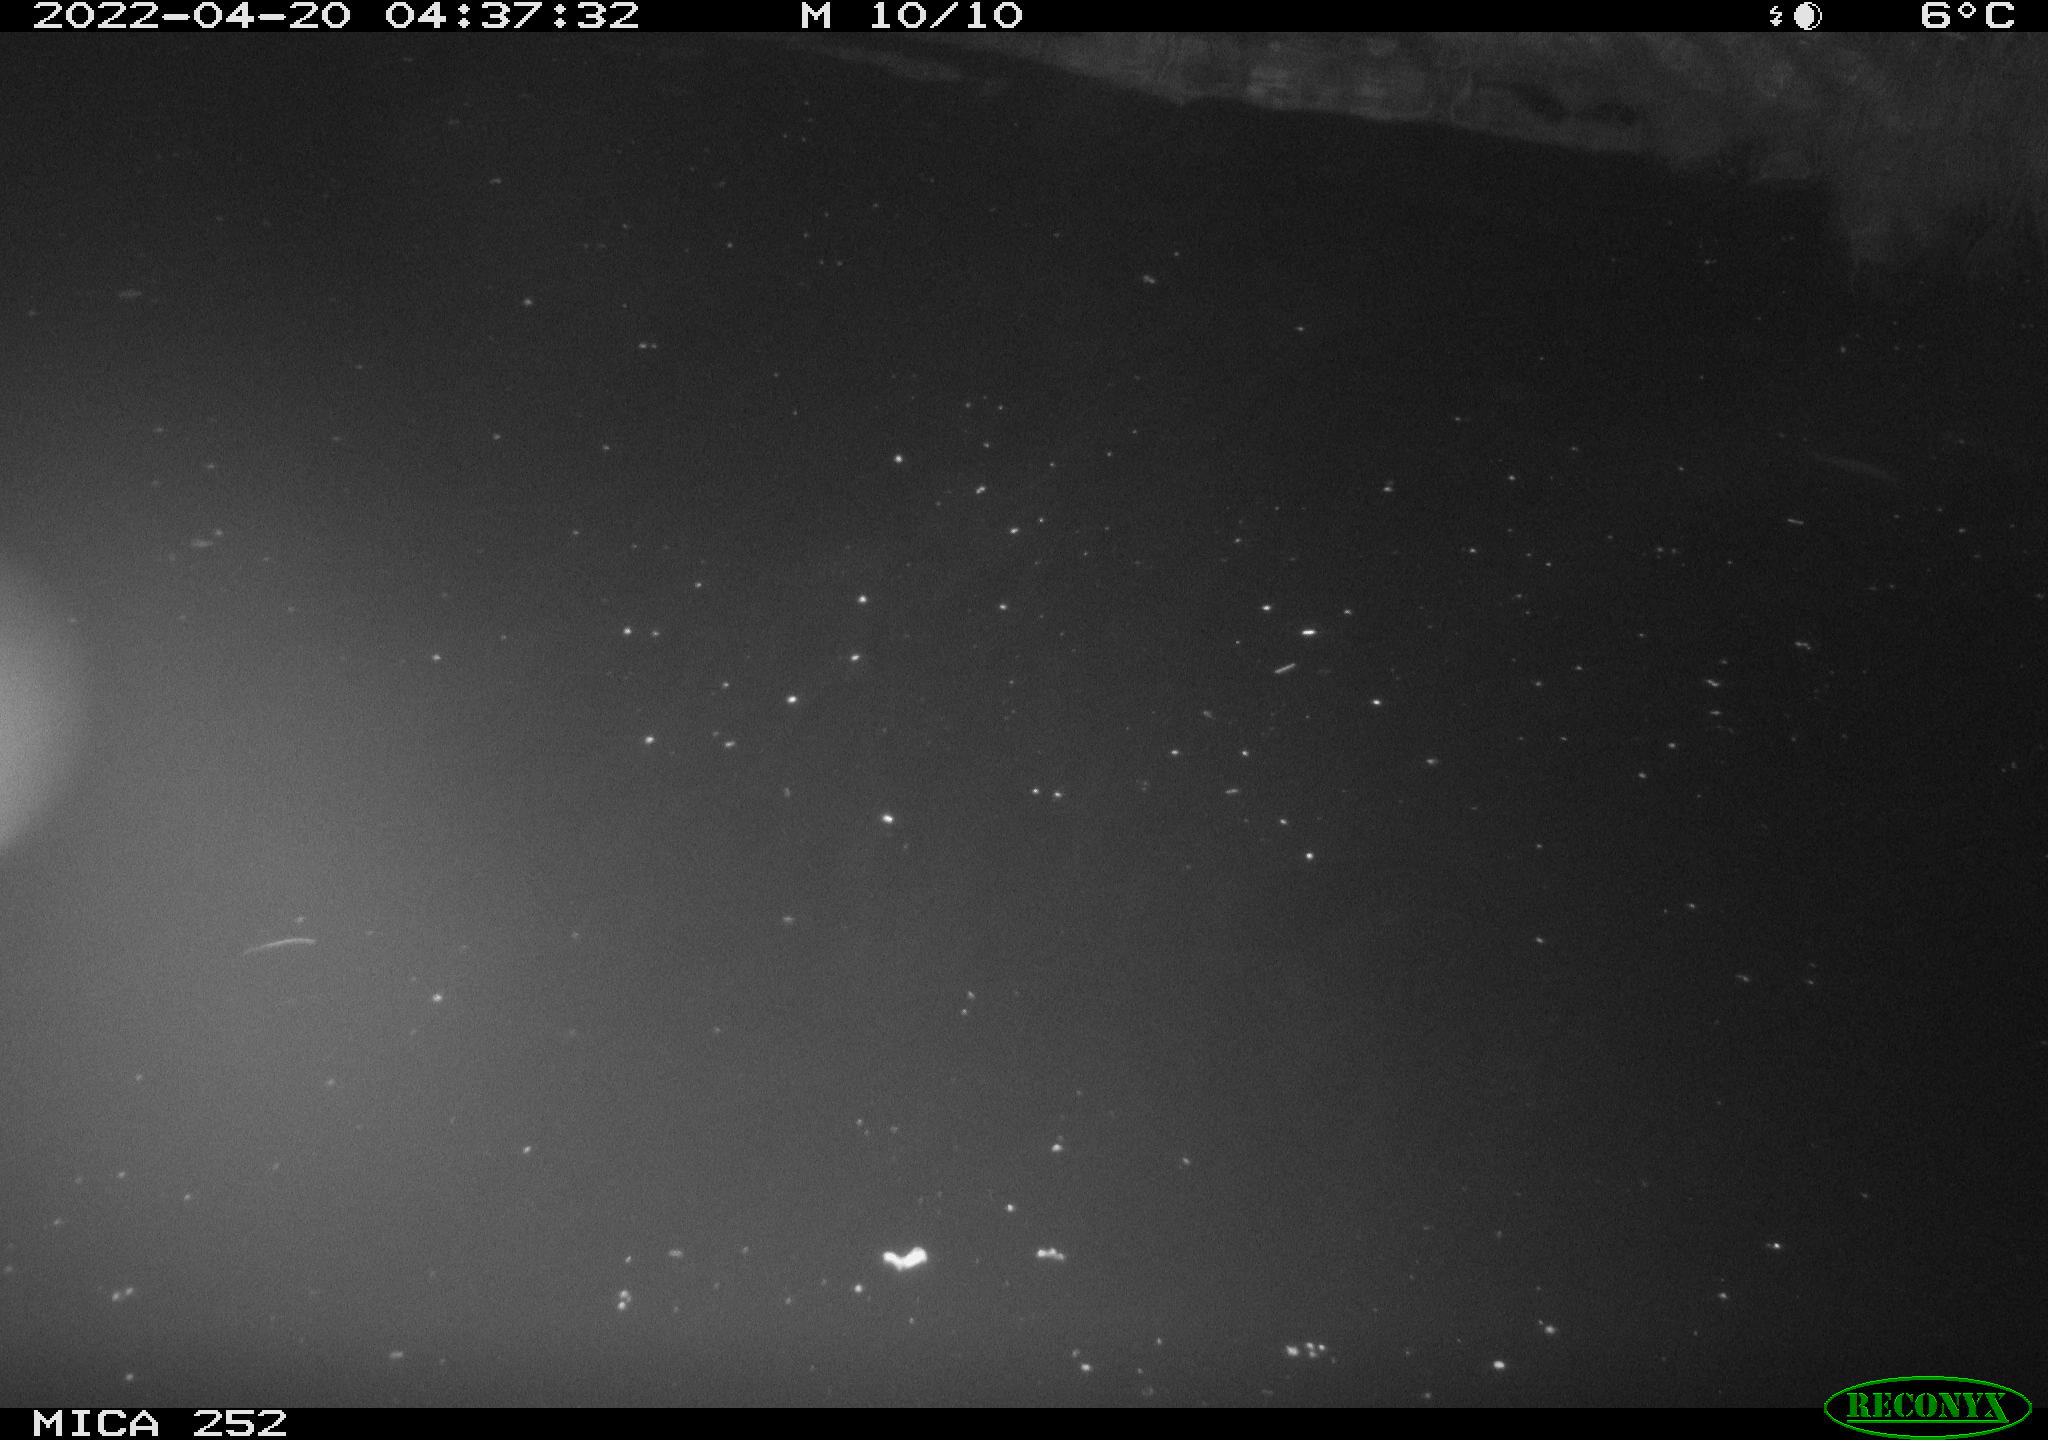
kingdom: Animalia
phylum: Chordata
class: Mammalia
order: Rodentia
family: Castoridae
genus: Castor
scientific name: Castor fiber
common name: Eurasian beaver
